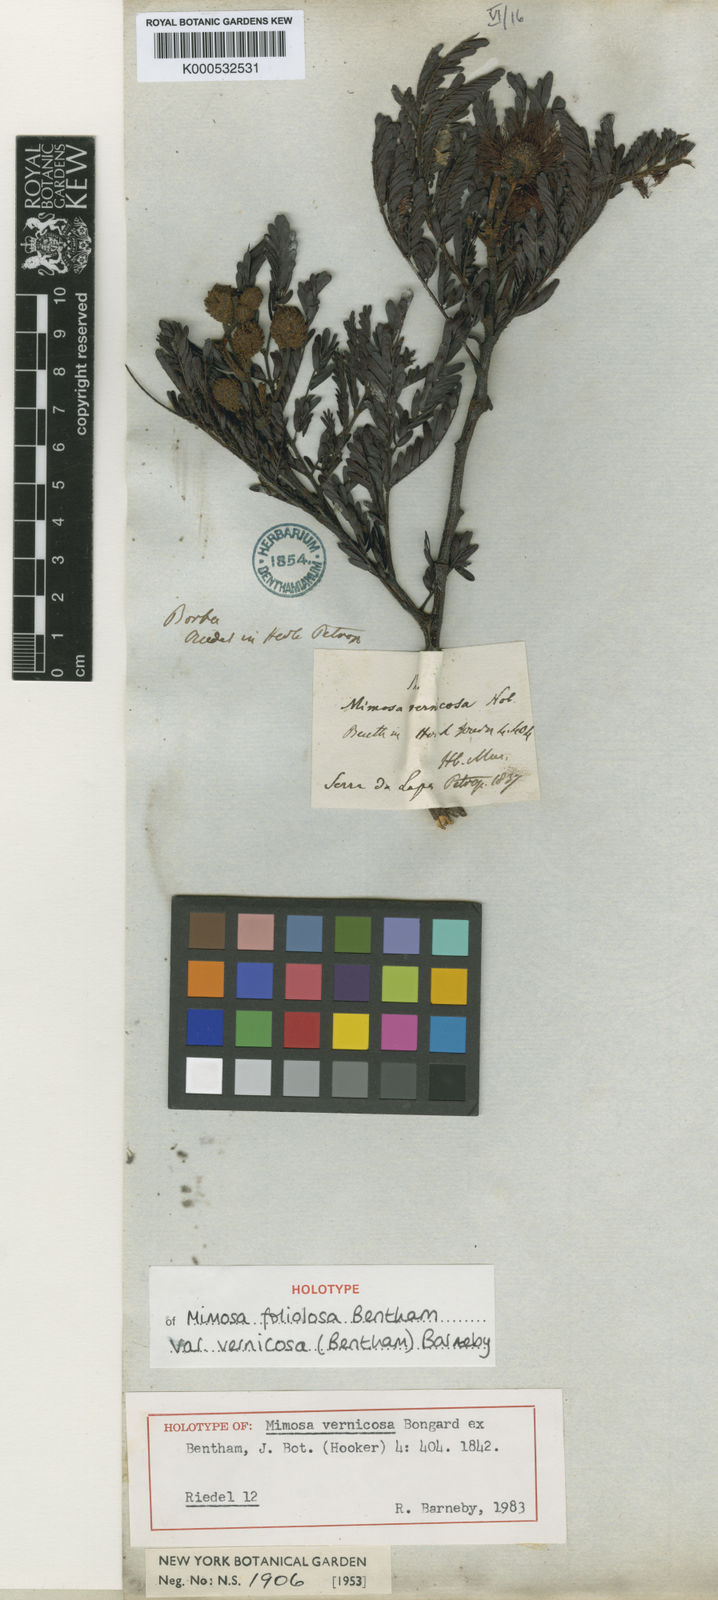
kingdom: Plantae
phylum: Tracheophyta
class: Magnoliopsida
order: Fabales
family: Fabaceae
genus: Mimosa
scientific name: Mimosa foliolosa
